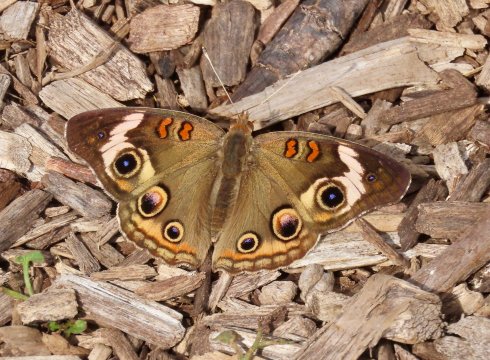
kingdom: Animalia
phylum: Arthropoda
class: Insecta
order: Lepidoptera
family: Nymphalidae
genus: Junonia
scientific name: Junonia coenia
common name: Common Buckeye
